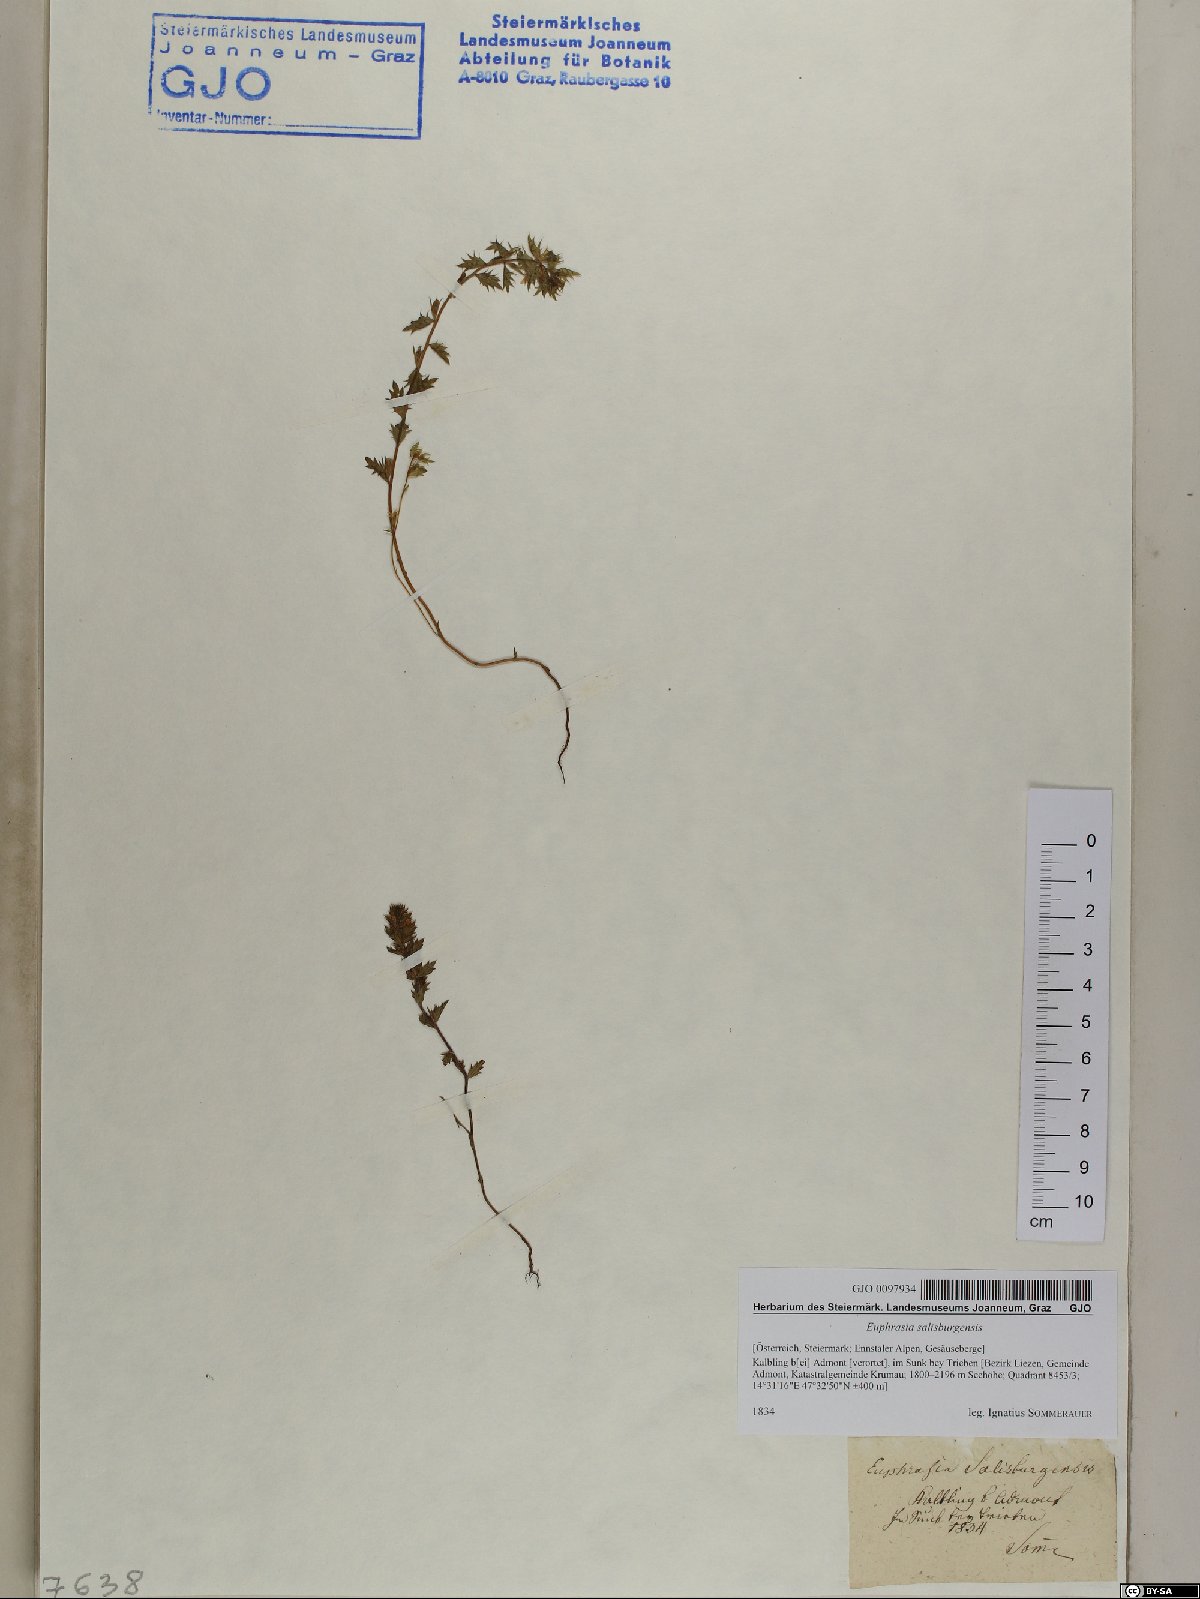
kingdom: Plantae
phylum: Tracheophyta
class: Magnoliopsida
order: Lamiales
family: Orobanchaceae
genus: Euphrasia
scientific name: Euphrasia salisburgensis
